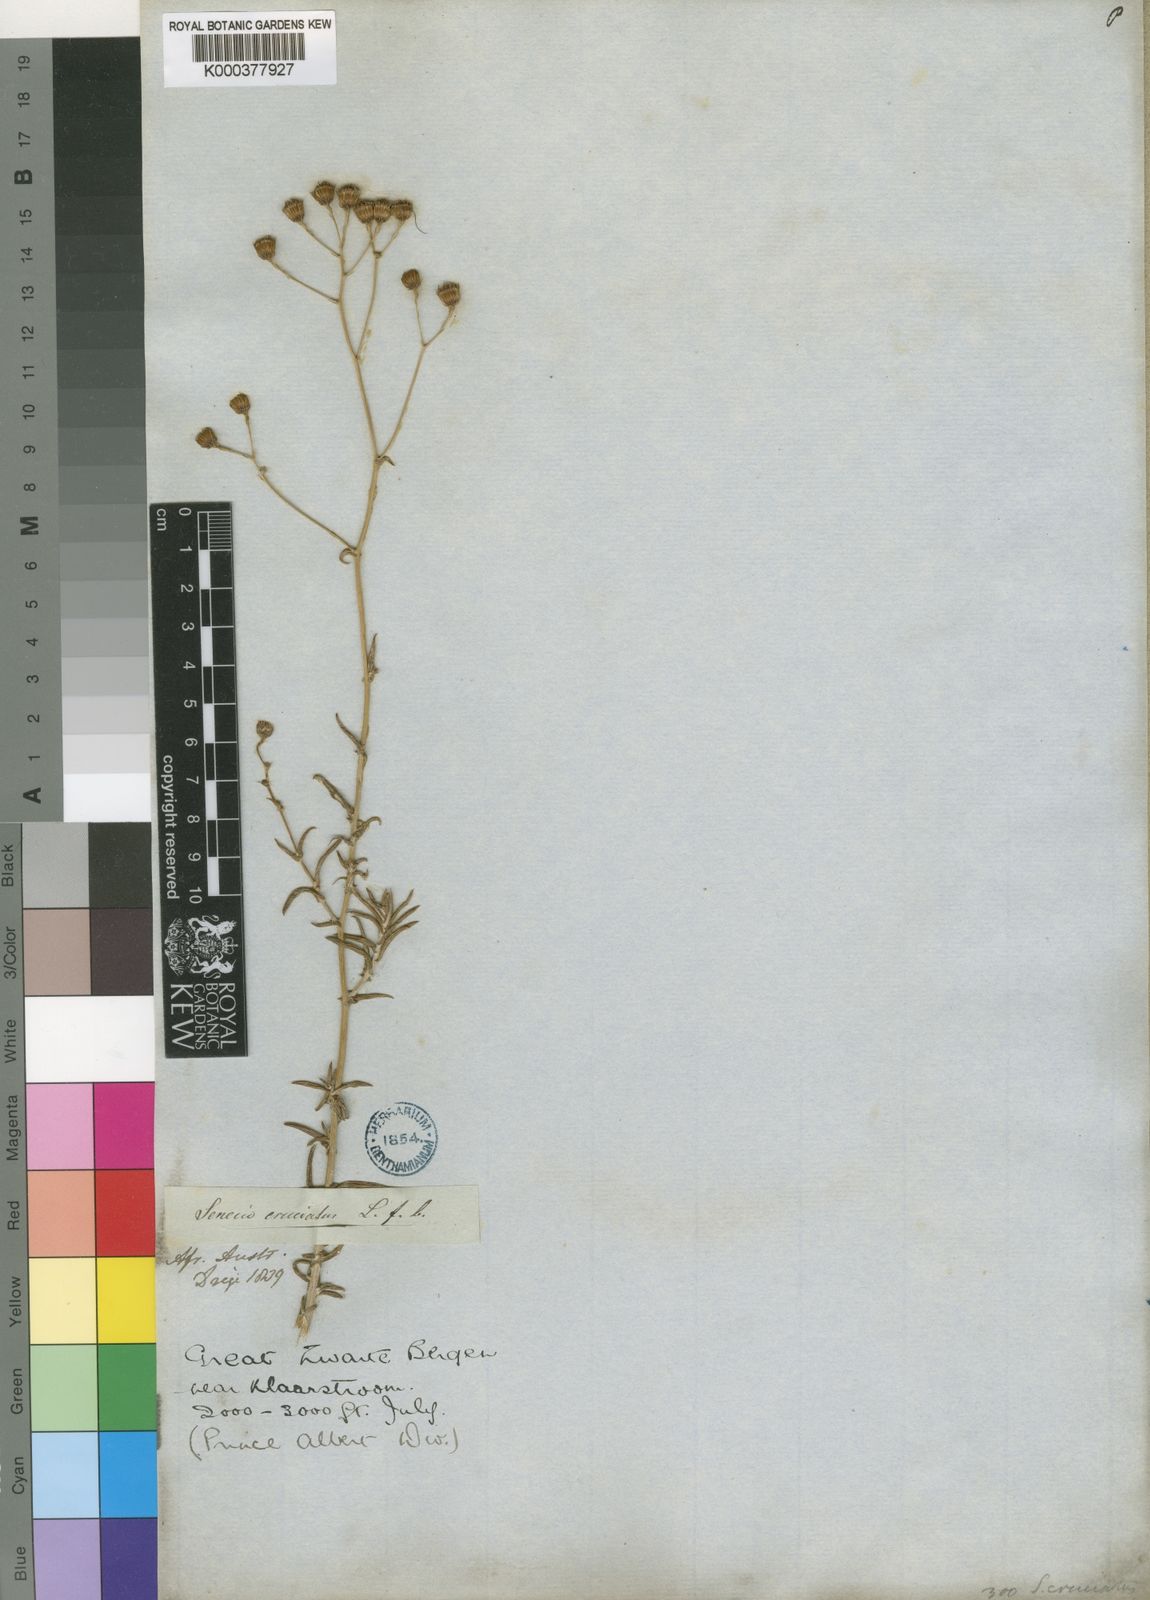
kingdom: Plantae
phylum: Tracheophyta
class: Magnoliopsida
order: Asterales
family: Asteraceae
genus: Senecio
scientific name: Senecio juniperinus
